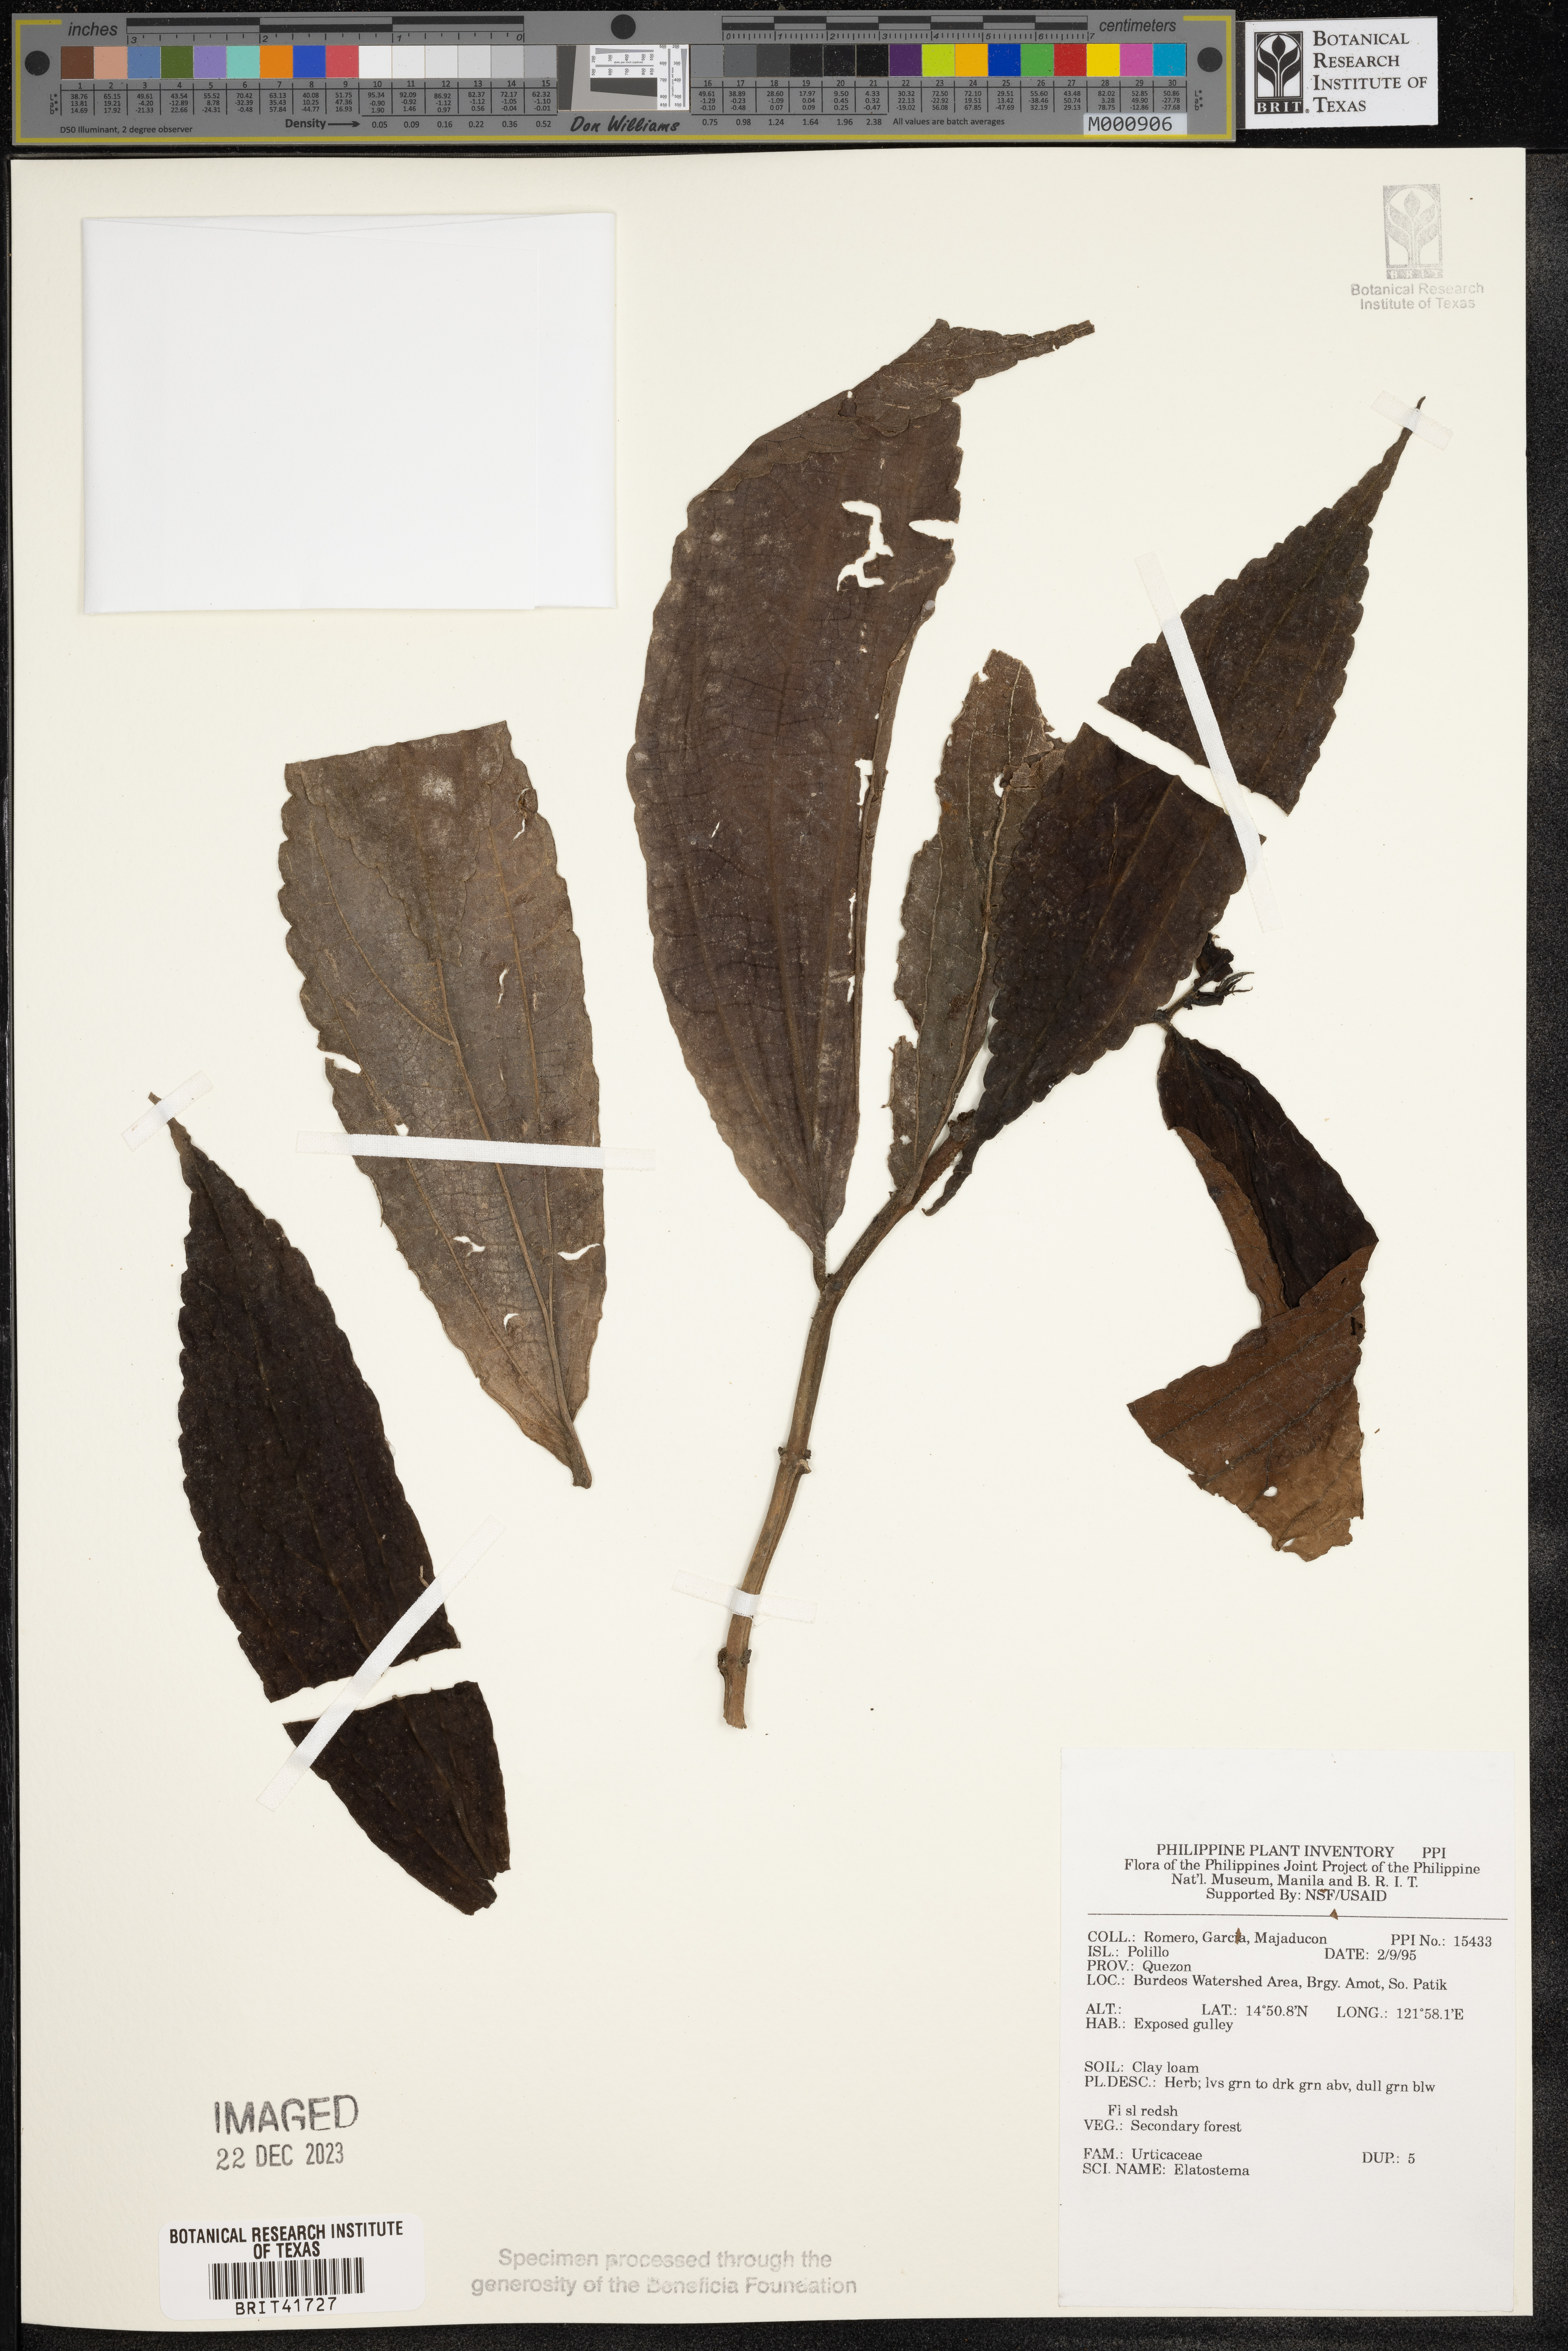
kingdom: Plantae
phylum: Tracheophyta
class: Magnoliopsida
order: Rosales
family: Urticaceae
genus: Elatostema
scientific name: Elatostema
